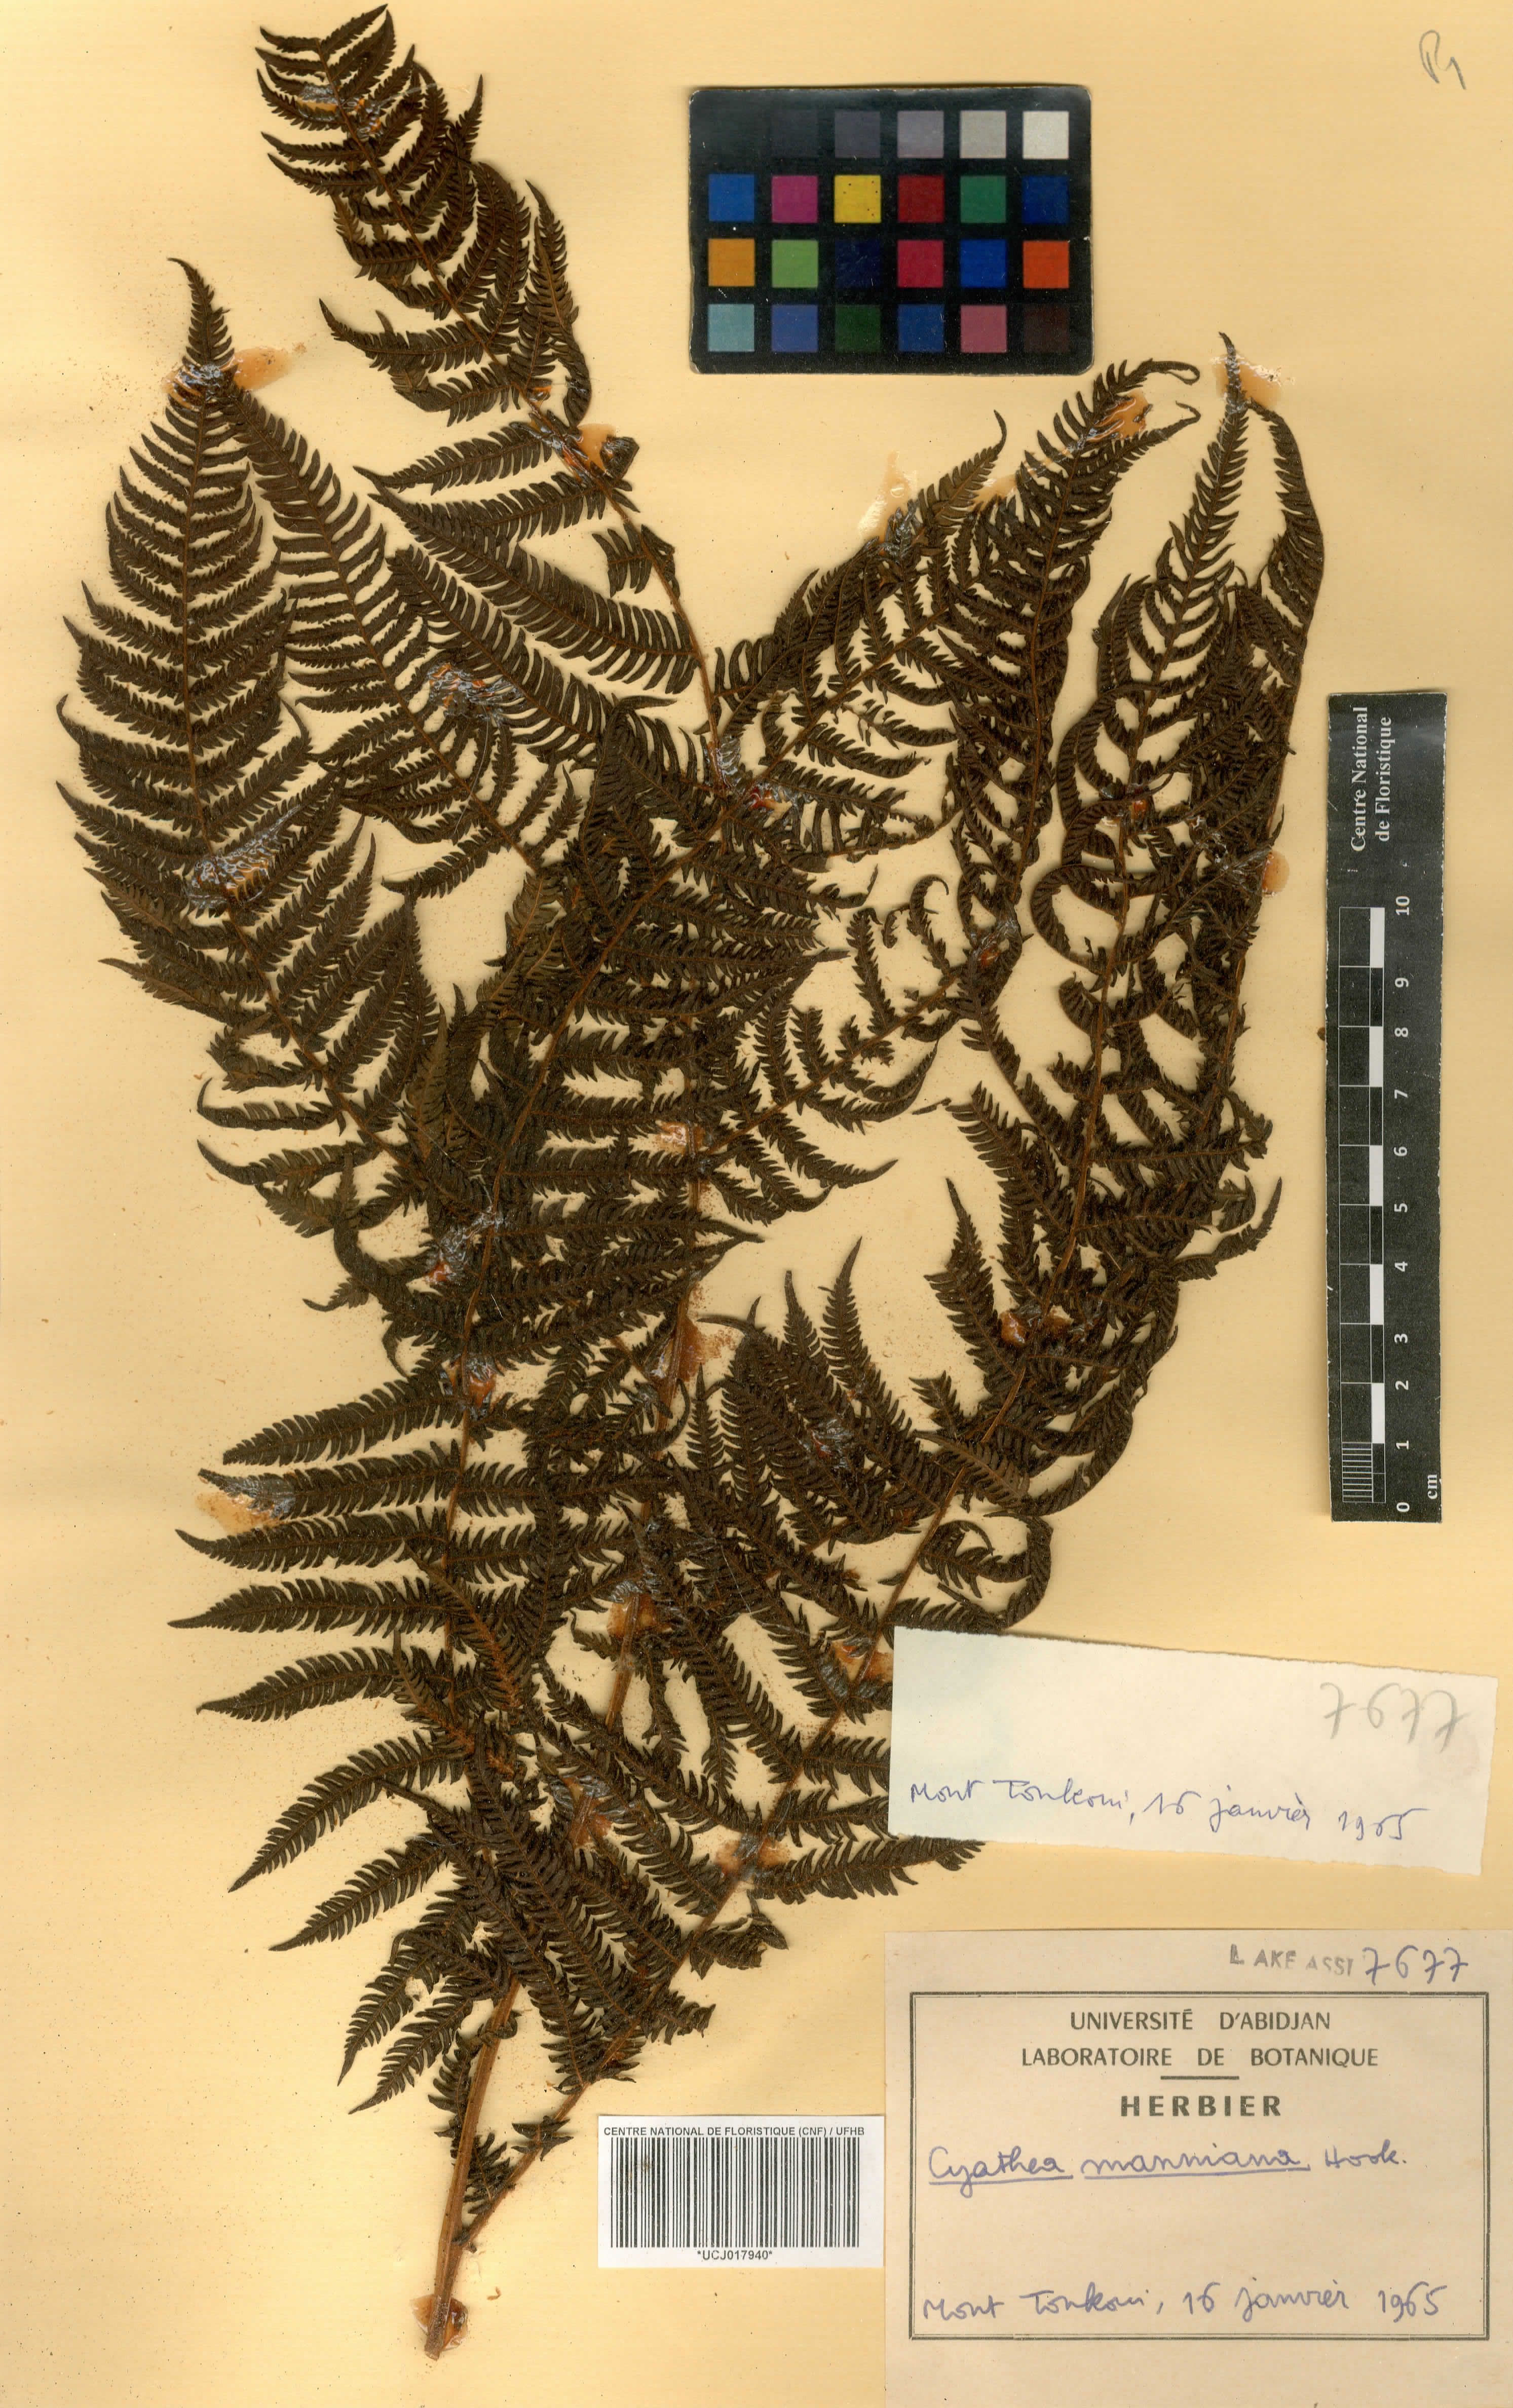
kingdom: Plantae
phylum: Tracheophyta
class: Polypodiopsida
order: Cyatheales
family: Cyatheaceae
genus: Alsophila
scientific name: Alsophila manniana
